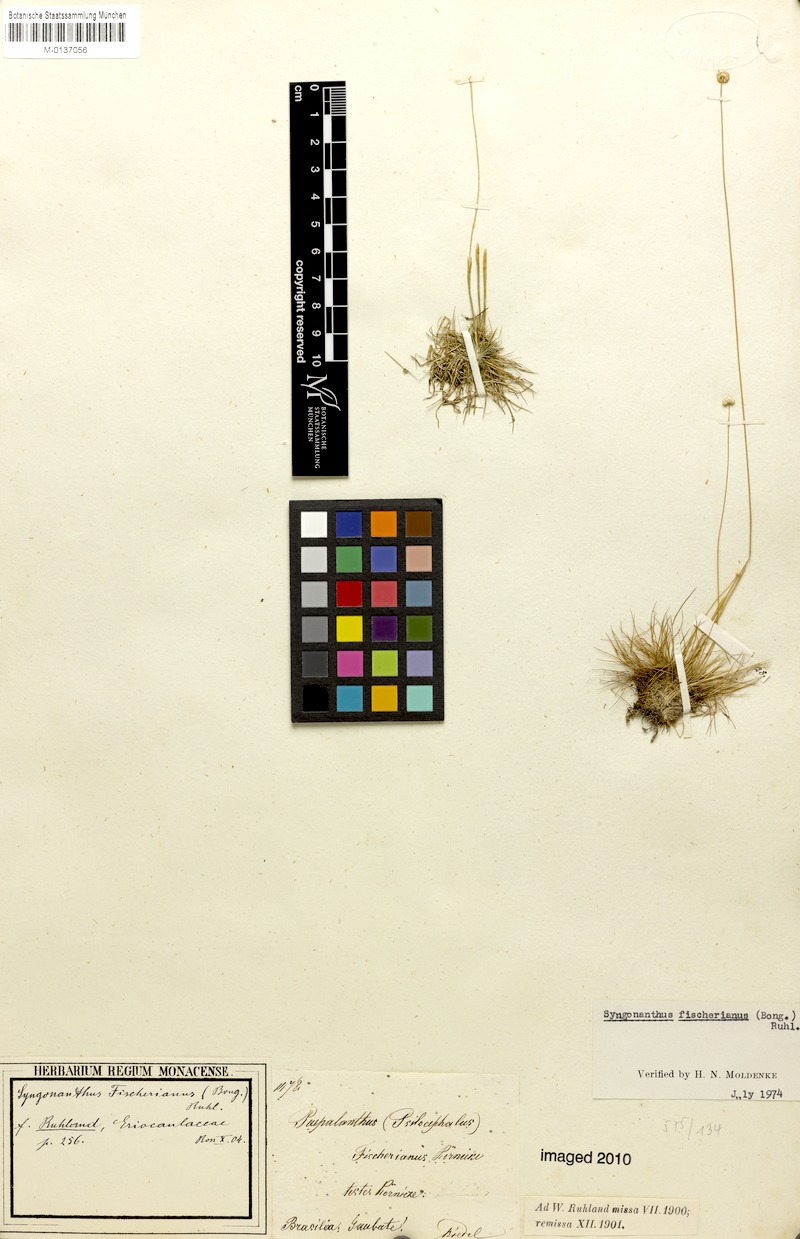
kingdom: Plantae
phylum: Tracheophyta
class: Liliopsida
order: Poales
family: Eriocaulaceae
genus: Syngonanthus
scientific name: Syngonanthus fischerianus
